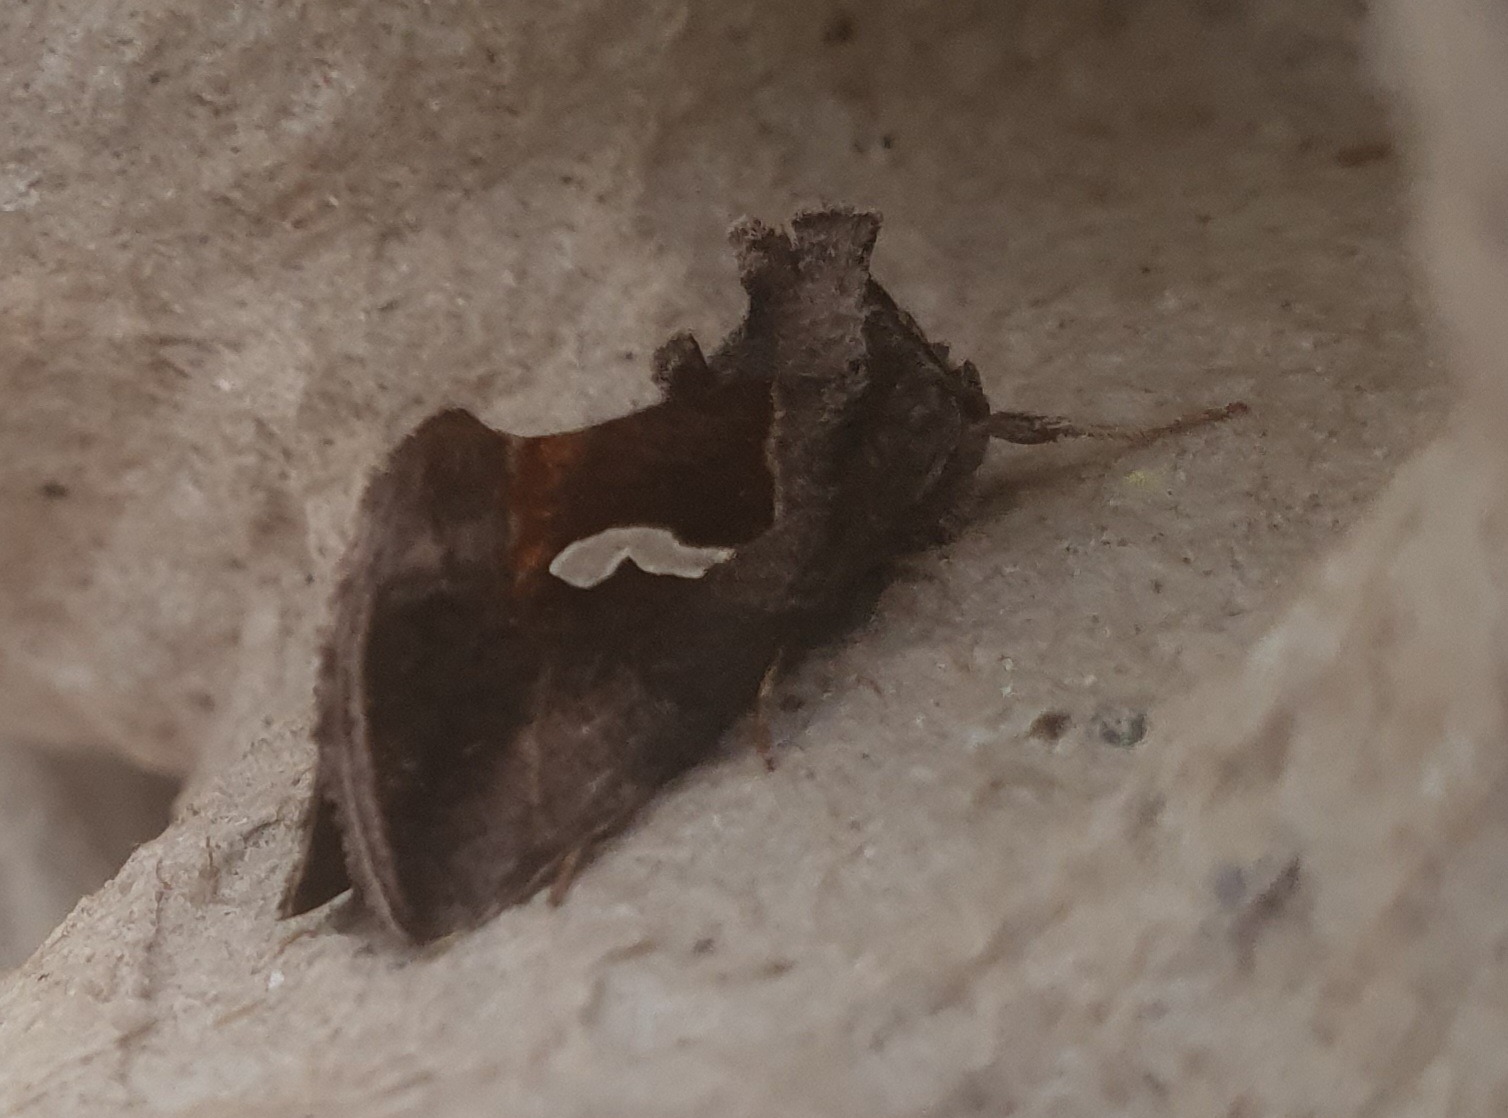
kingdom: Animalia
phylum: Arthropoda
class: Insecta
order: Lepidoptera
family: Noctuidae
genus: Macdunnoughia
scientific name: Macdunnoughia confusa
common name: Sølvdråbeugle
